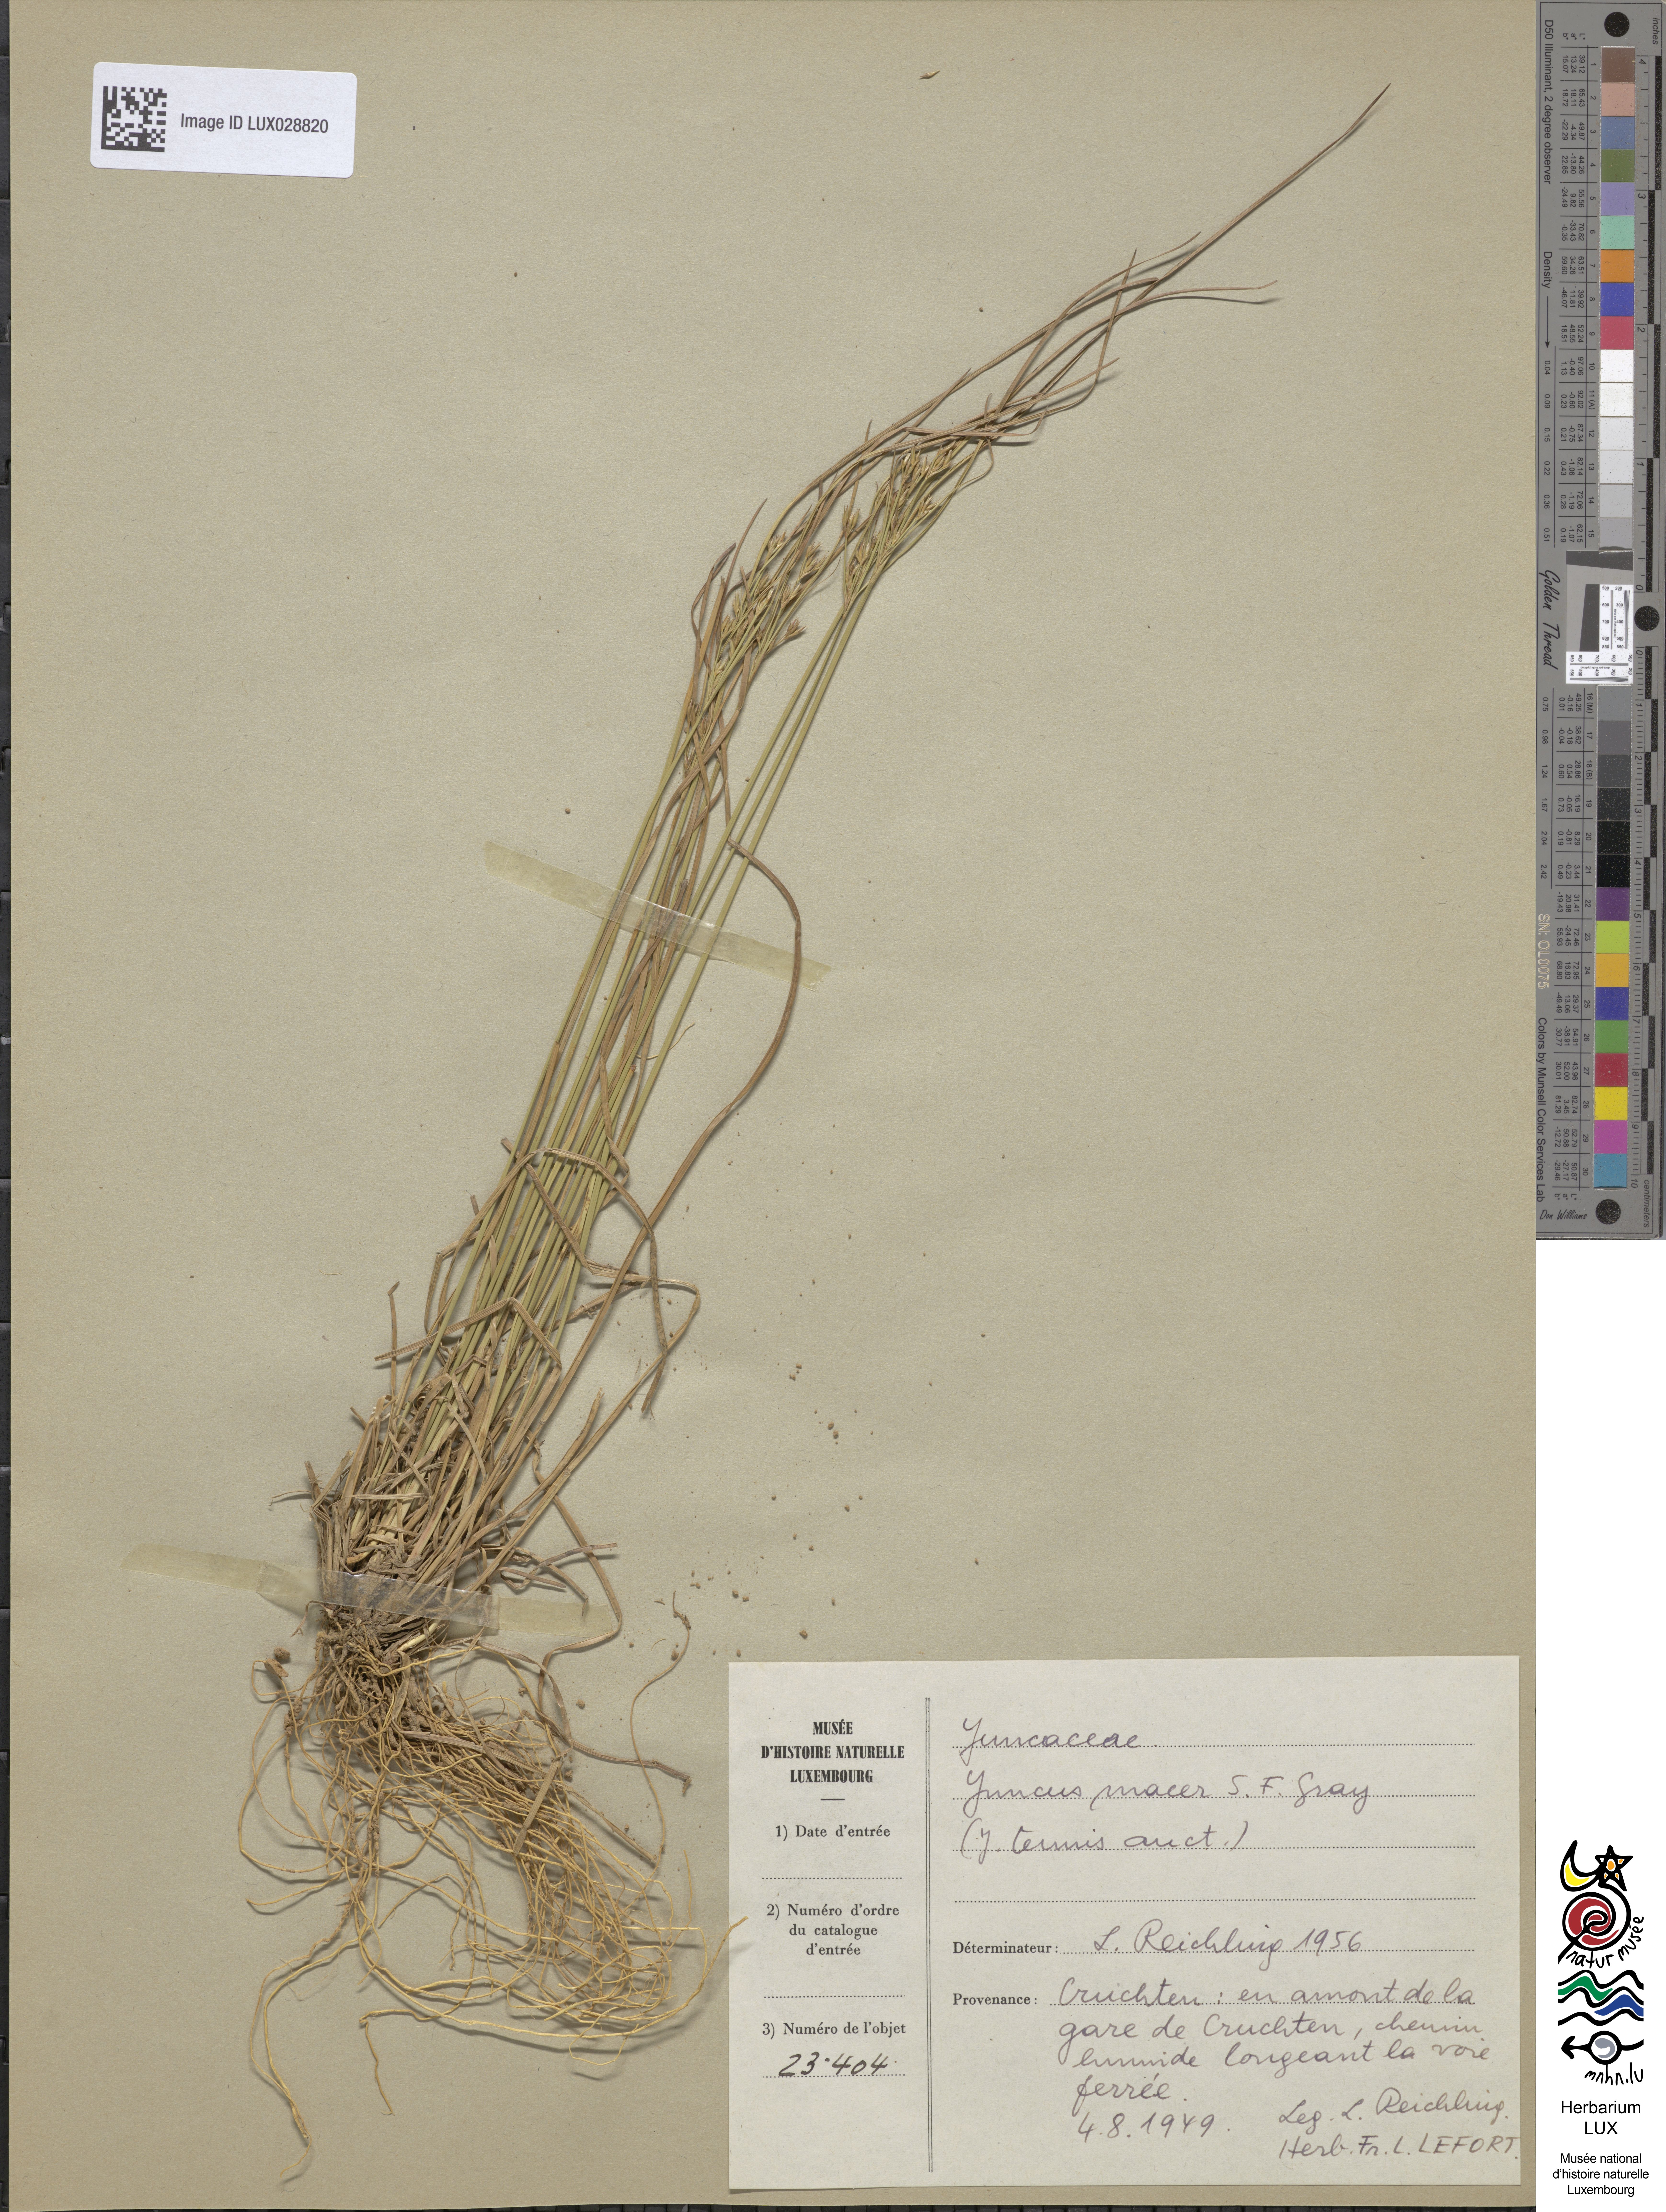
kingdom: Plantae
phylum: Tracheophyta
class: Liliopsida
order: Poales
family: Juncaceae
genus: Juncus
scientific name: Juncus tenuis
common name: Slender rush
